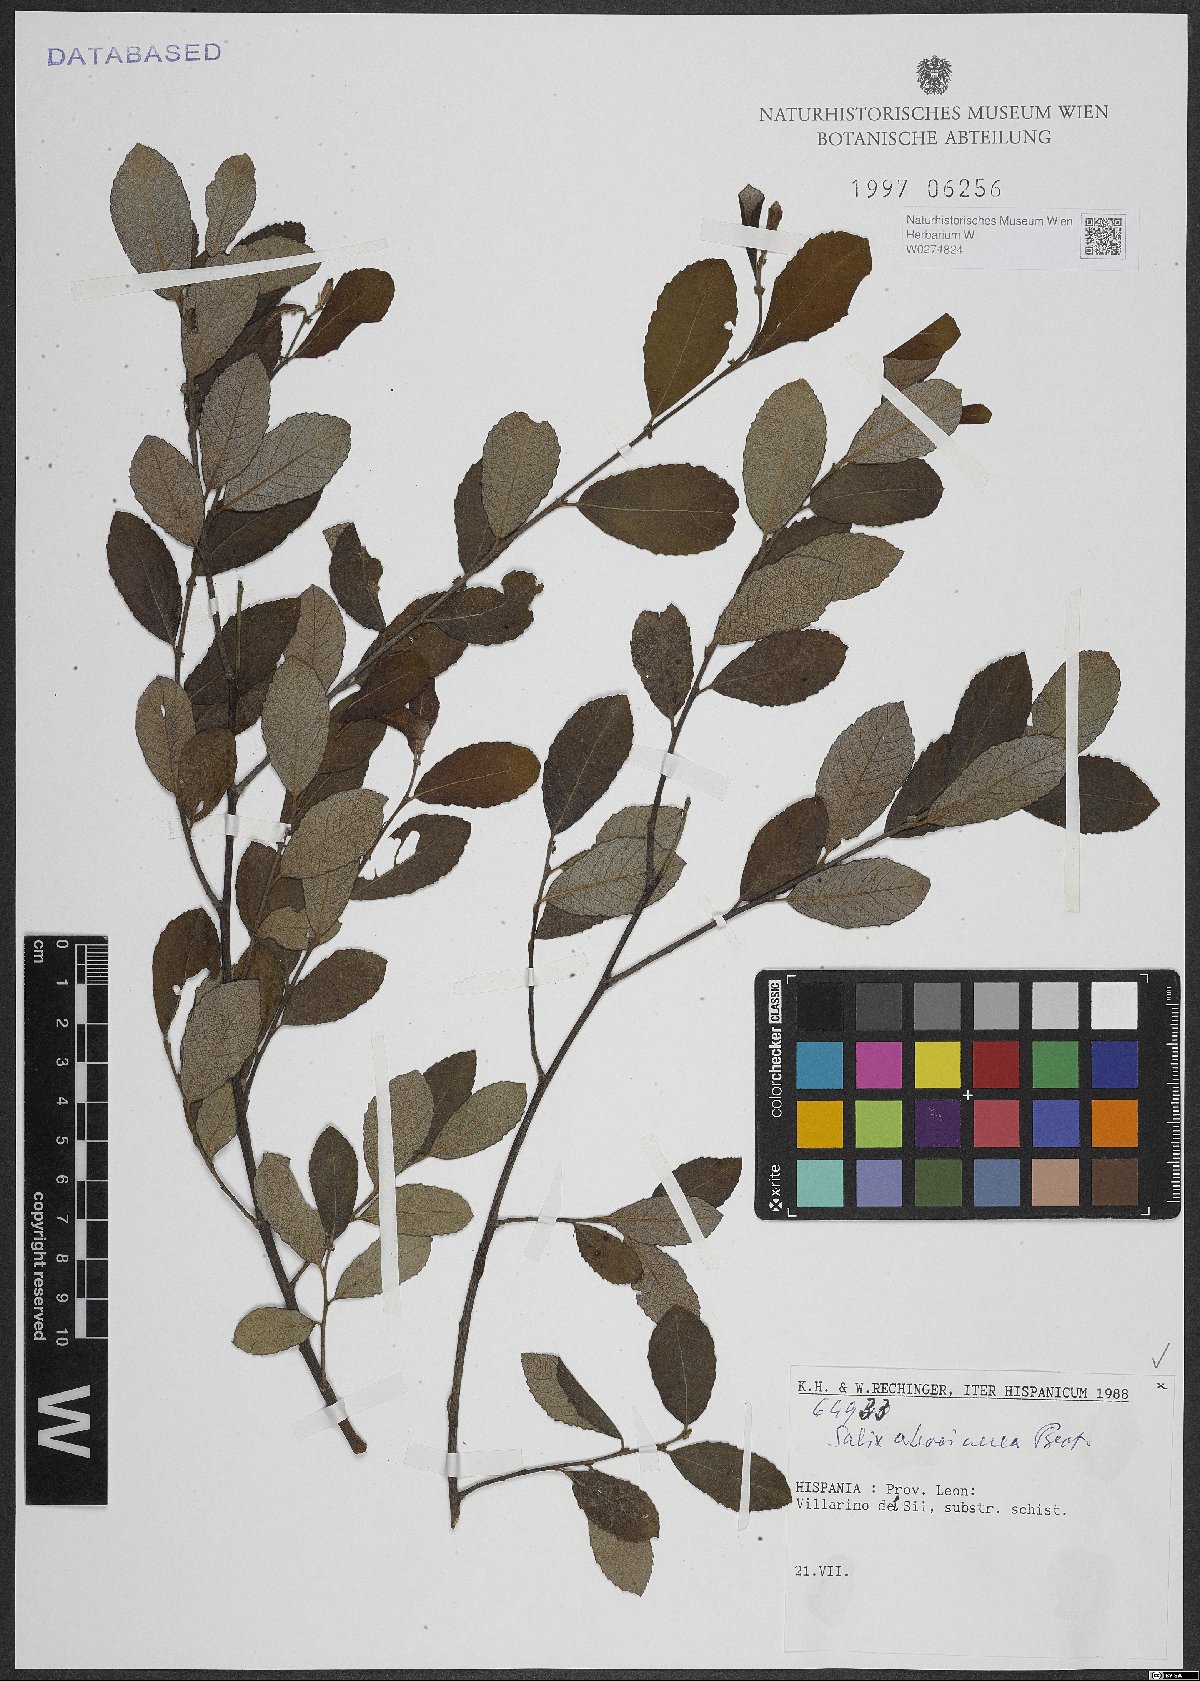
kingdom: Plantae
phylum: Tracheophyta
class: Magnoliopsida
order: Malpighiales
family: Salicaceae
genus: Salix
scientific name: Salix atrocinerea
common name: Rusty willow
